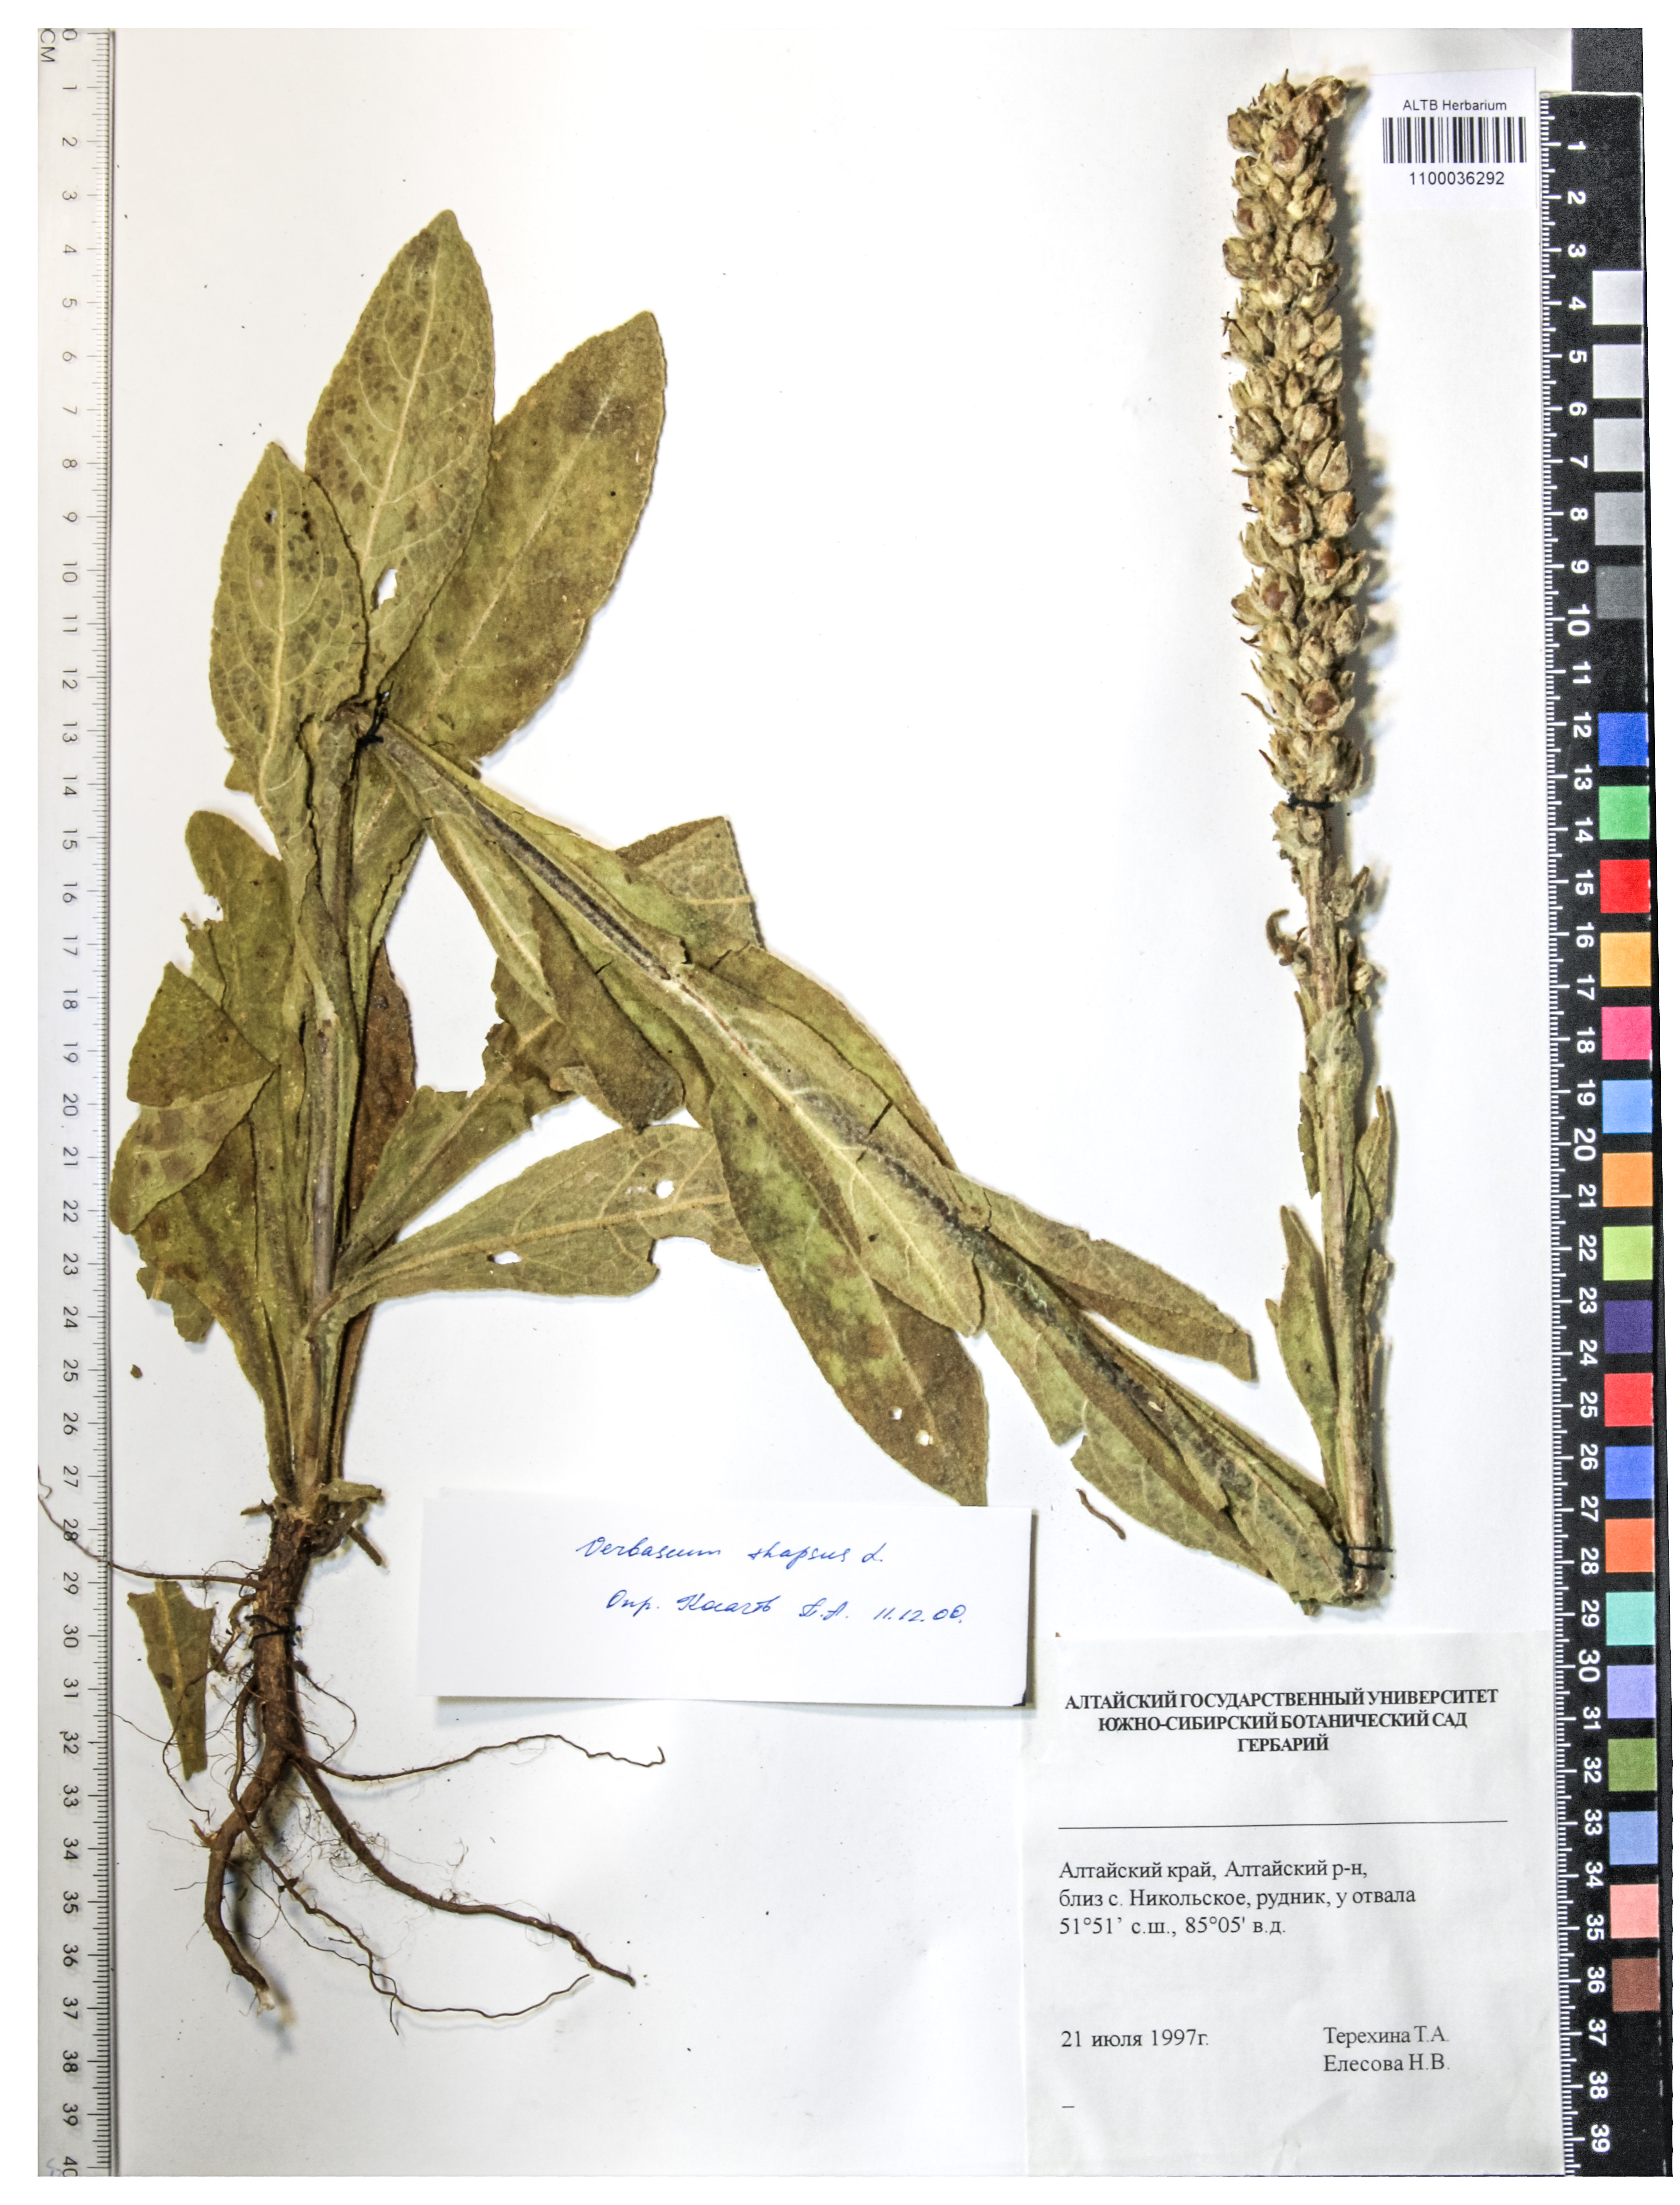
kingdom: Plantae
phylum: Tracheophyta
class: Magnoliopsida
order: Lamiales
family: Scrophulariaceae
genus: Verbascum
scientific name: Verbascum thapsus
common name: Common mullein
